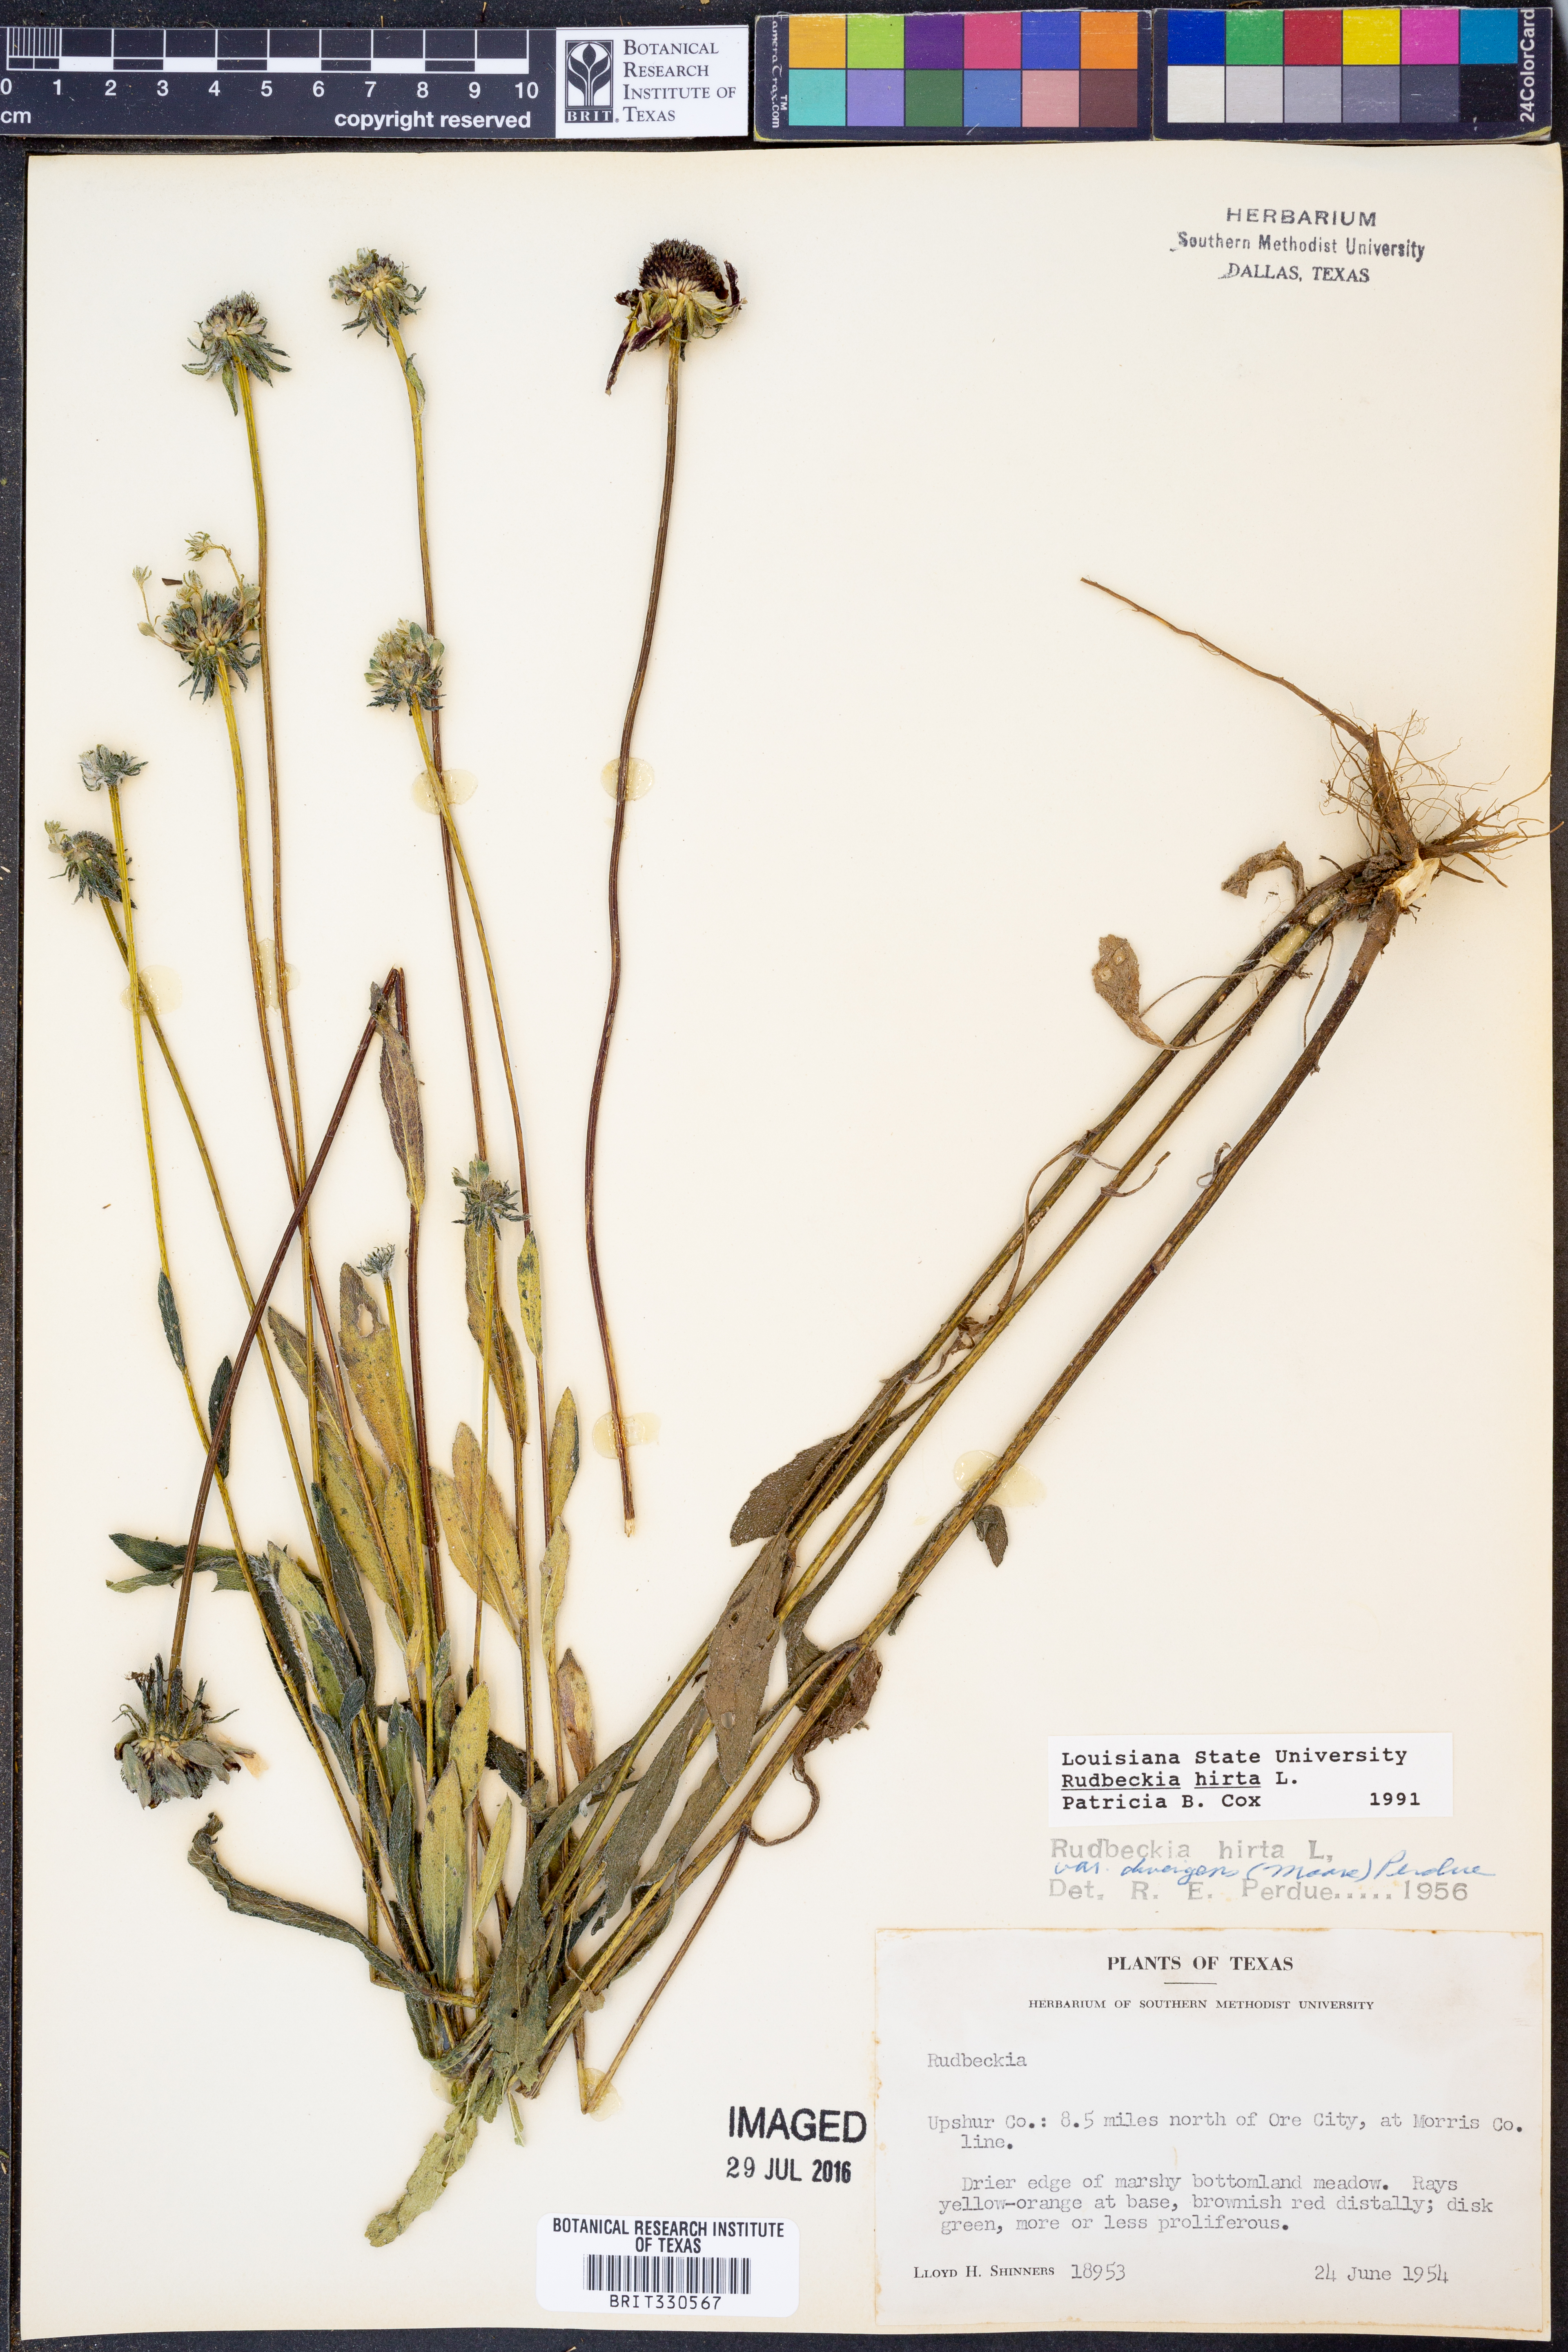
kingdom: Plantae
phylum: Tracheophyta
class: Magnoliopsida
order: Asterales
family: Asteraceae
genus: Rudbeckia
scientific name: Rudbeckia hirta
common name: Black-eyed-susan
